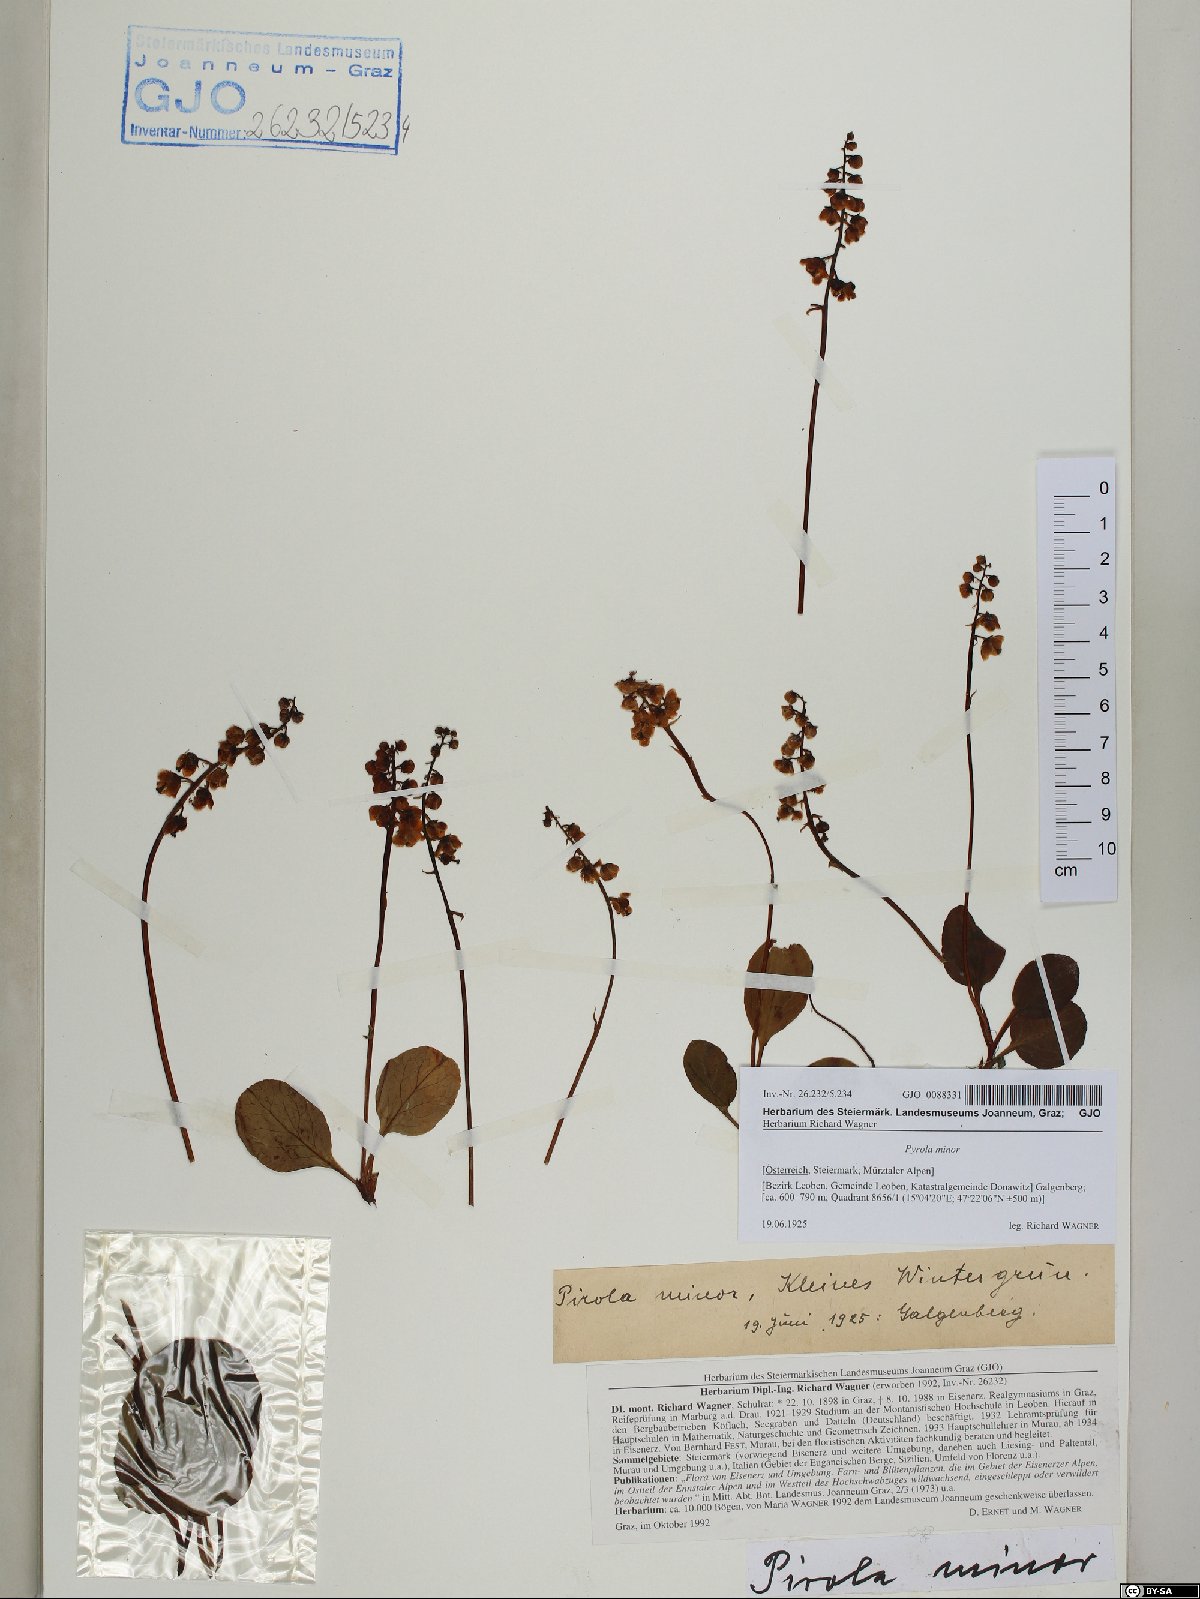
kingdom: Plantae
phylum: Tracheophyta
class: Magnoliopsida
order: Ericales
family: Ericaceae
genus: Pyrola
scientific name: Pyrola minor
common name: Common wintergreen
